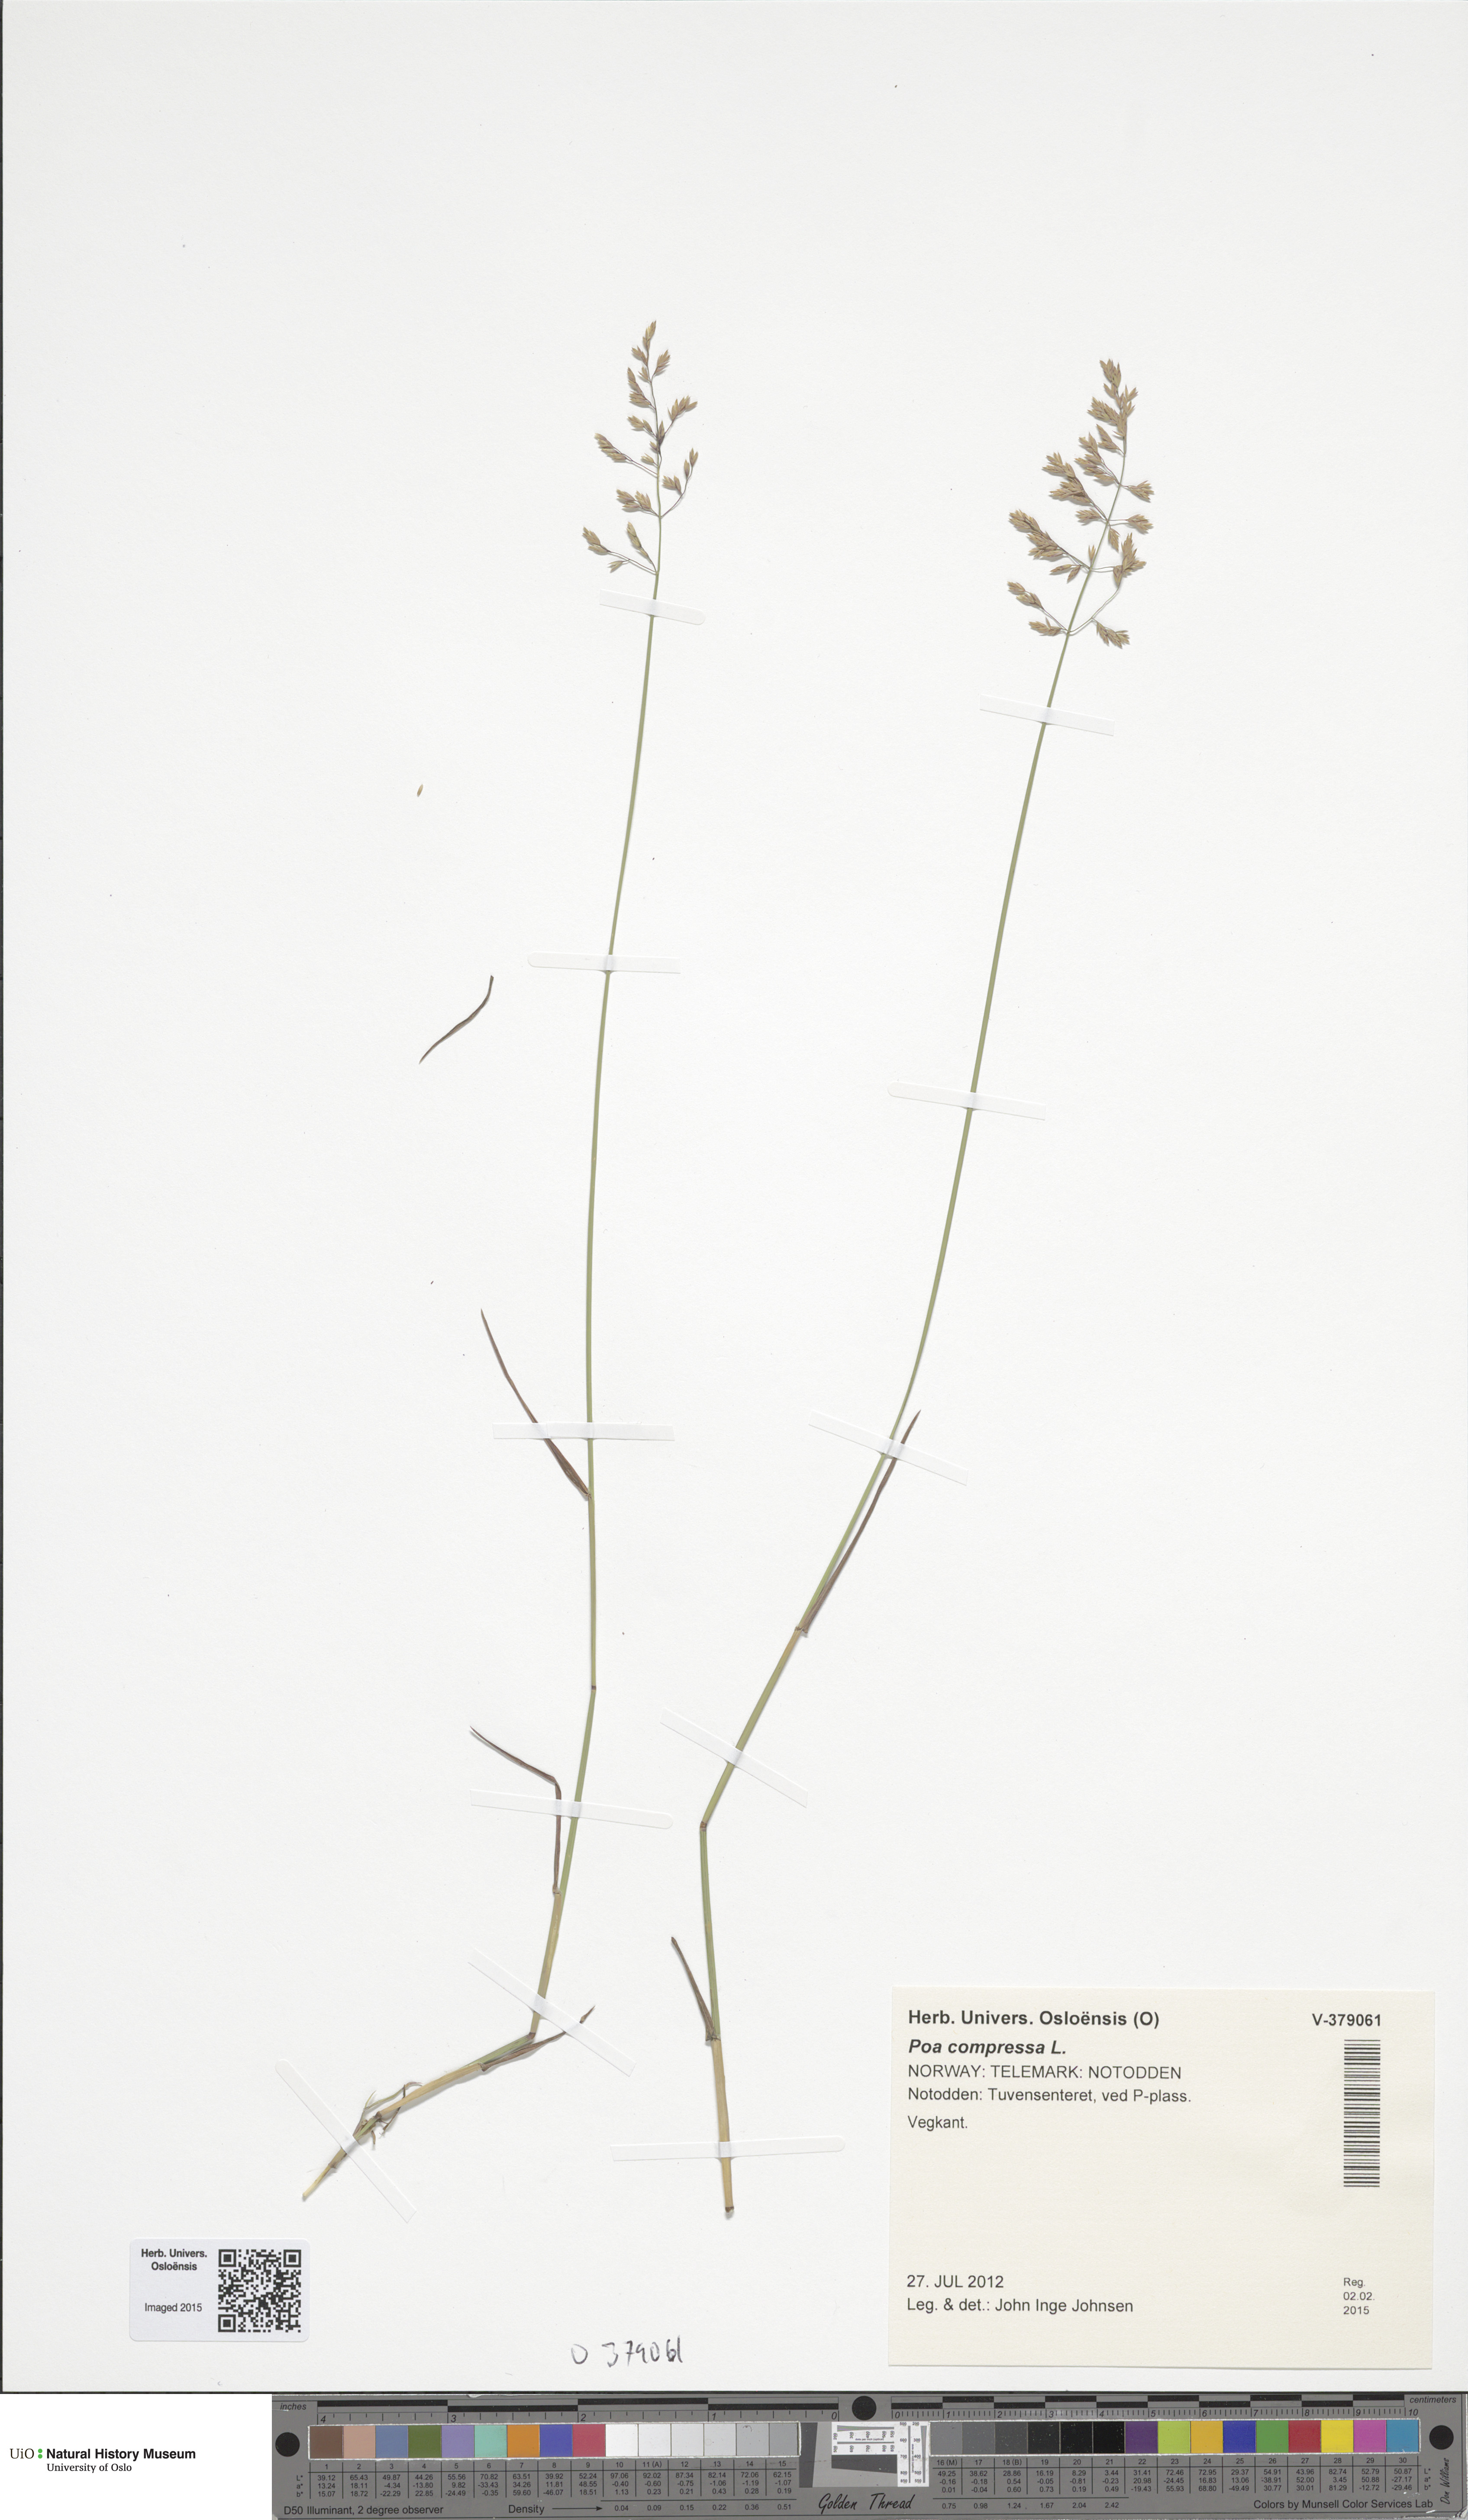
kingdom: Plantae
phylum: Tracheophyta
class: Liliopsida
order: Poales
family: Poaceae
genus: Poa
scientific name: Poa compressa
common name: Canada bluegrass
